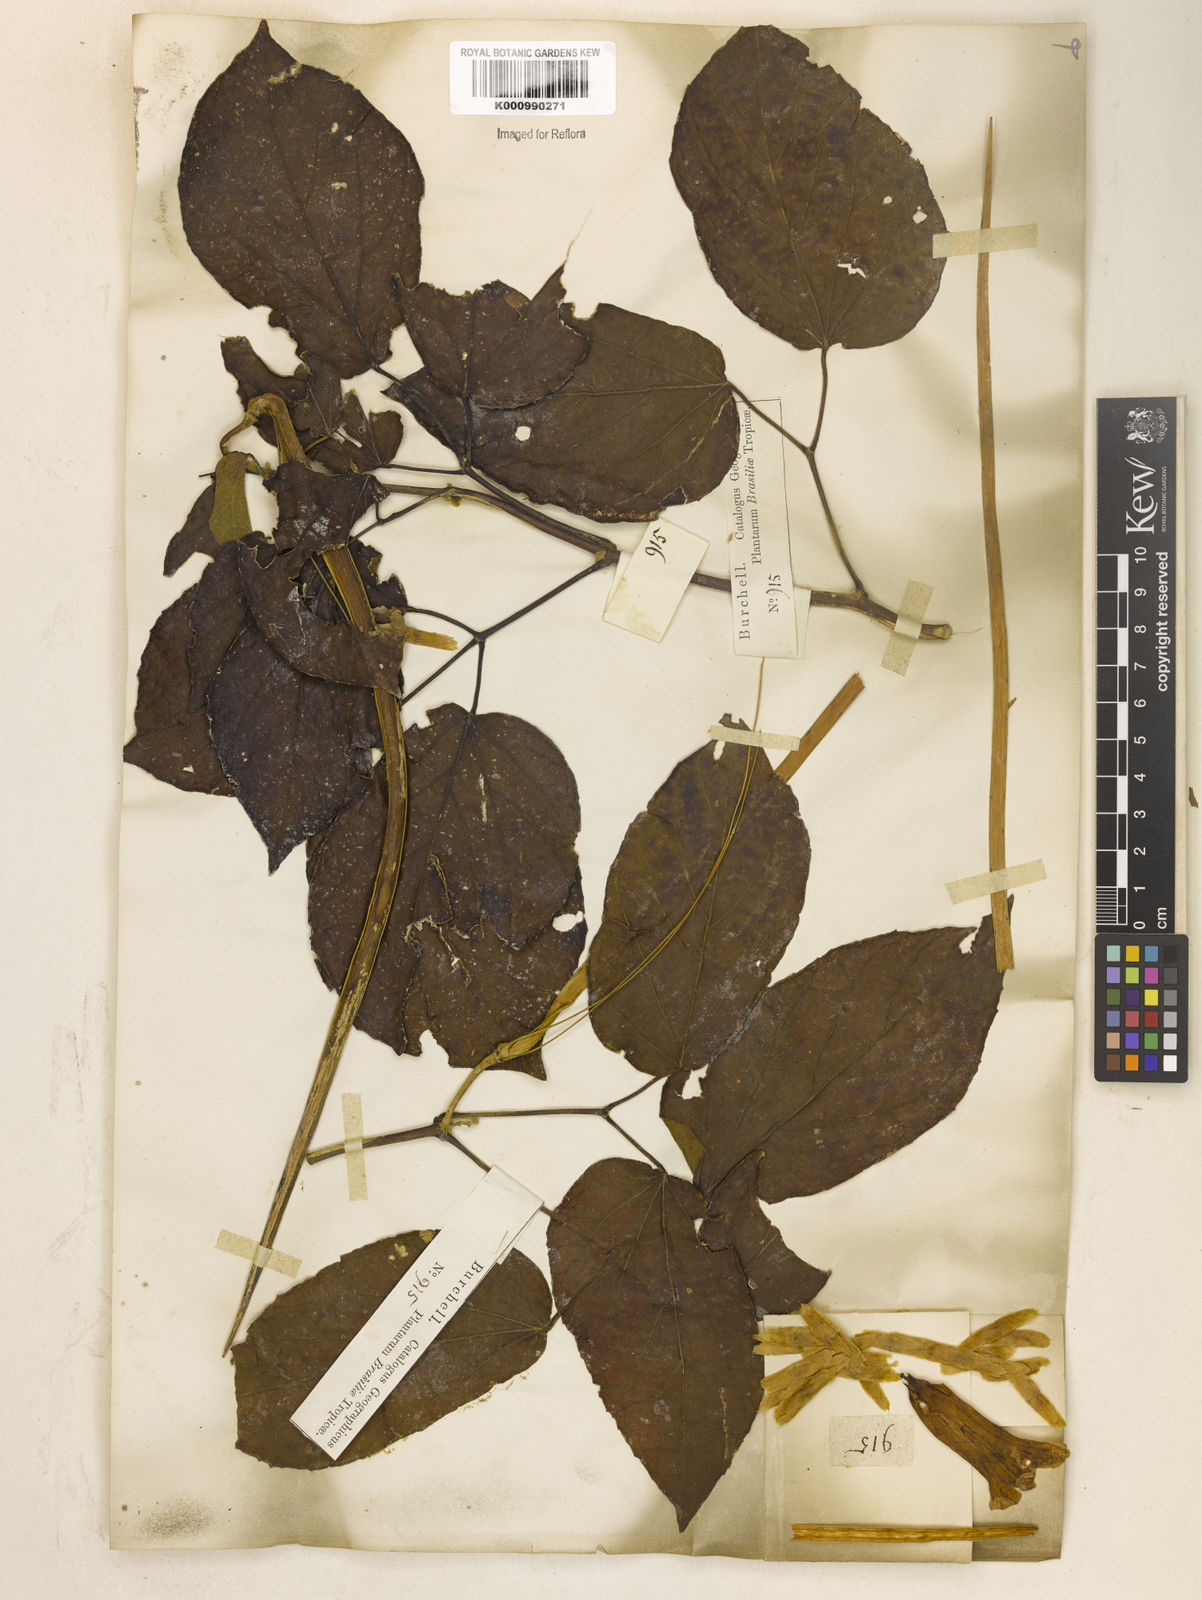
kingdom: Plantae
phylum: Tracheophyta
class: Magnoliopsida
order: Lamiales
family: Bignoniaceae
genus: Stizophyllum
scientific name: Stizophyllum perforatum
